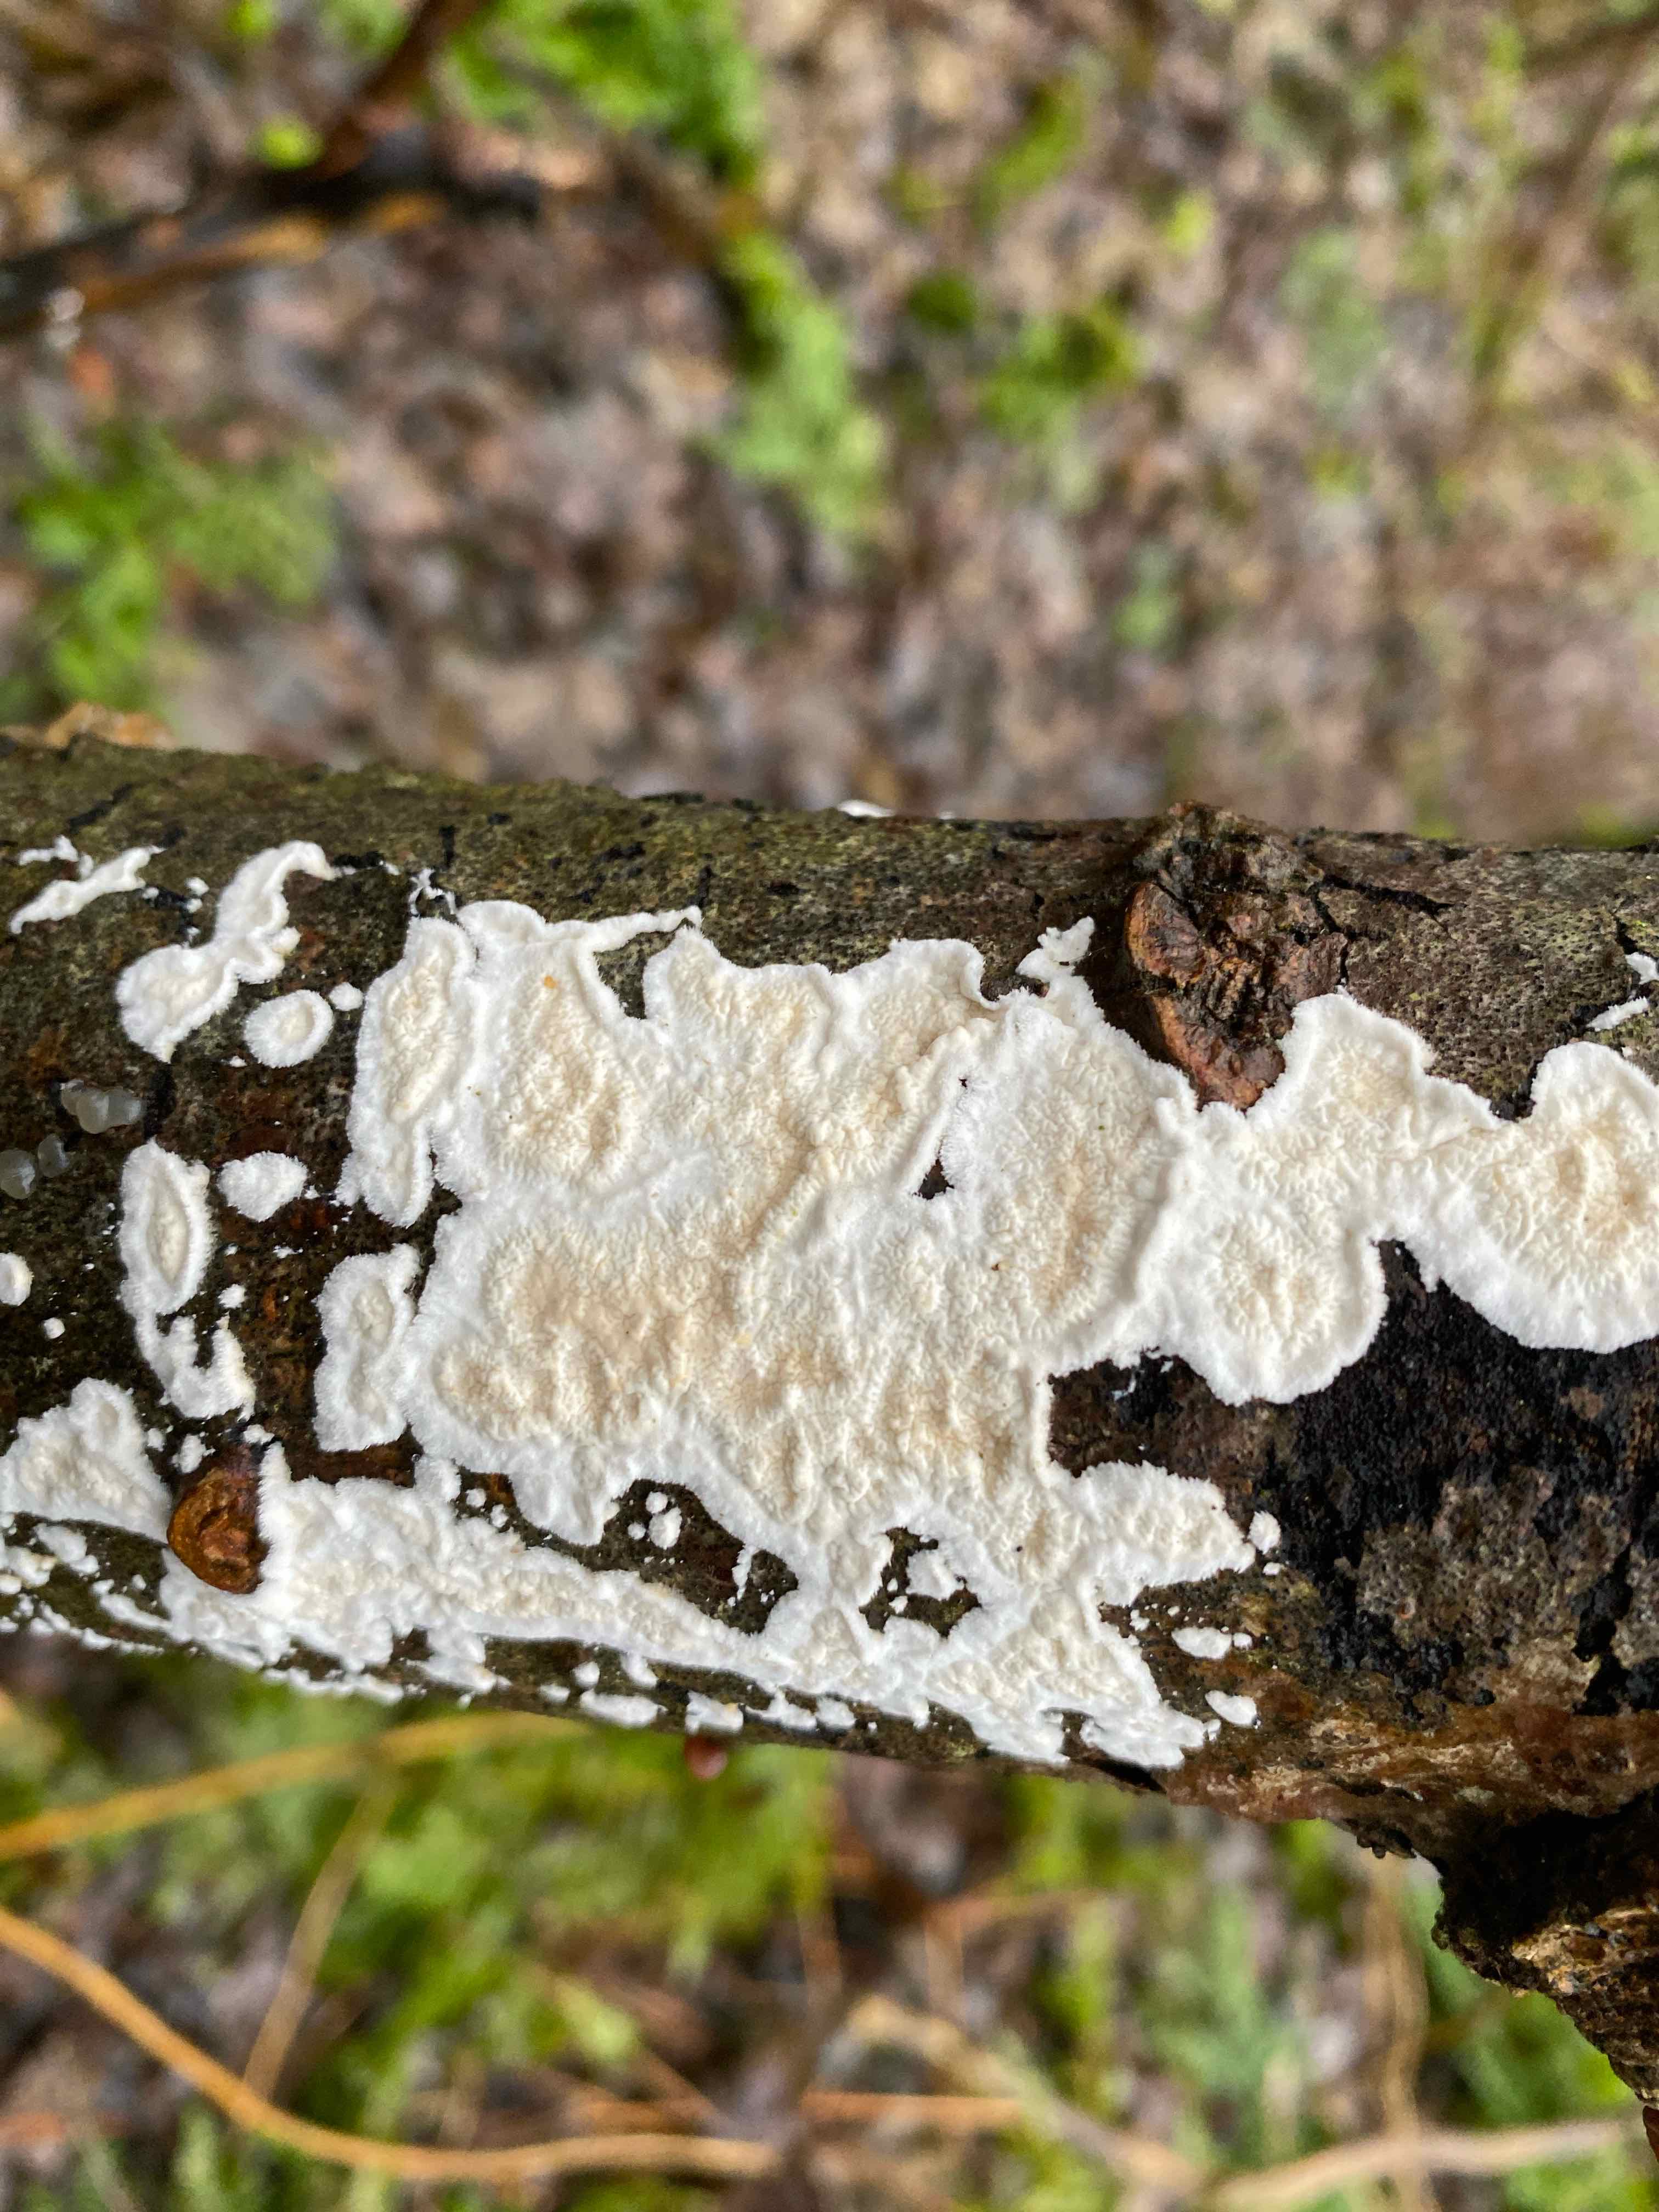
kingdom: Fungi
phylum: Basidiomycota
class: Agaricomycetes
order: Polyporales
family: Irpicaceae
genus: Byssomerulius
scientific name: Byssomerulius corium
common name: læder-åresvamp
